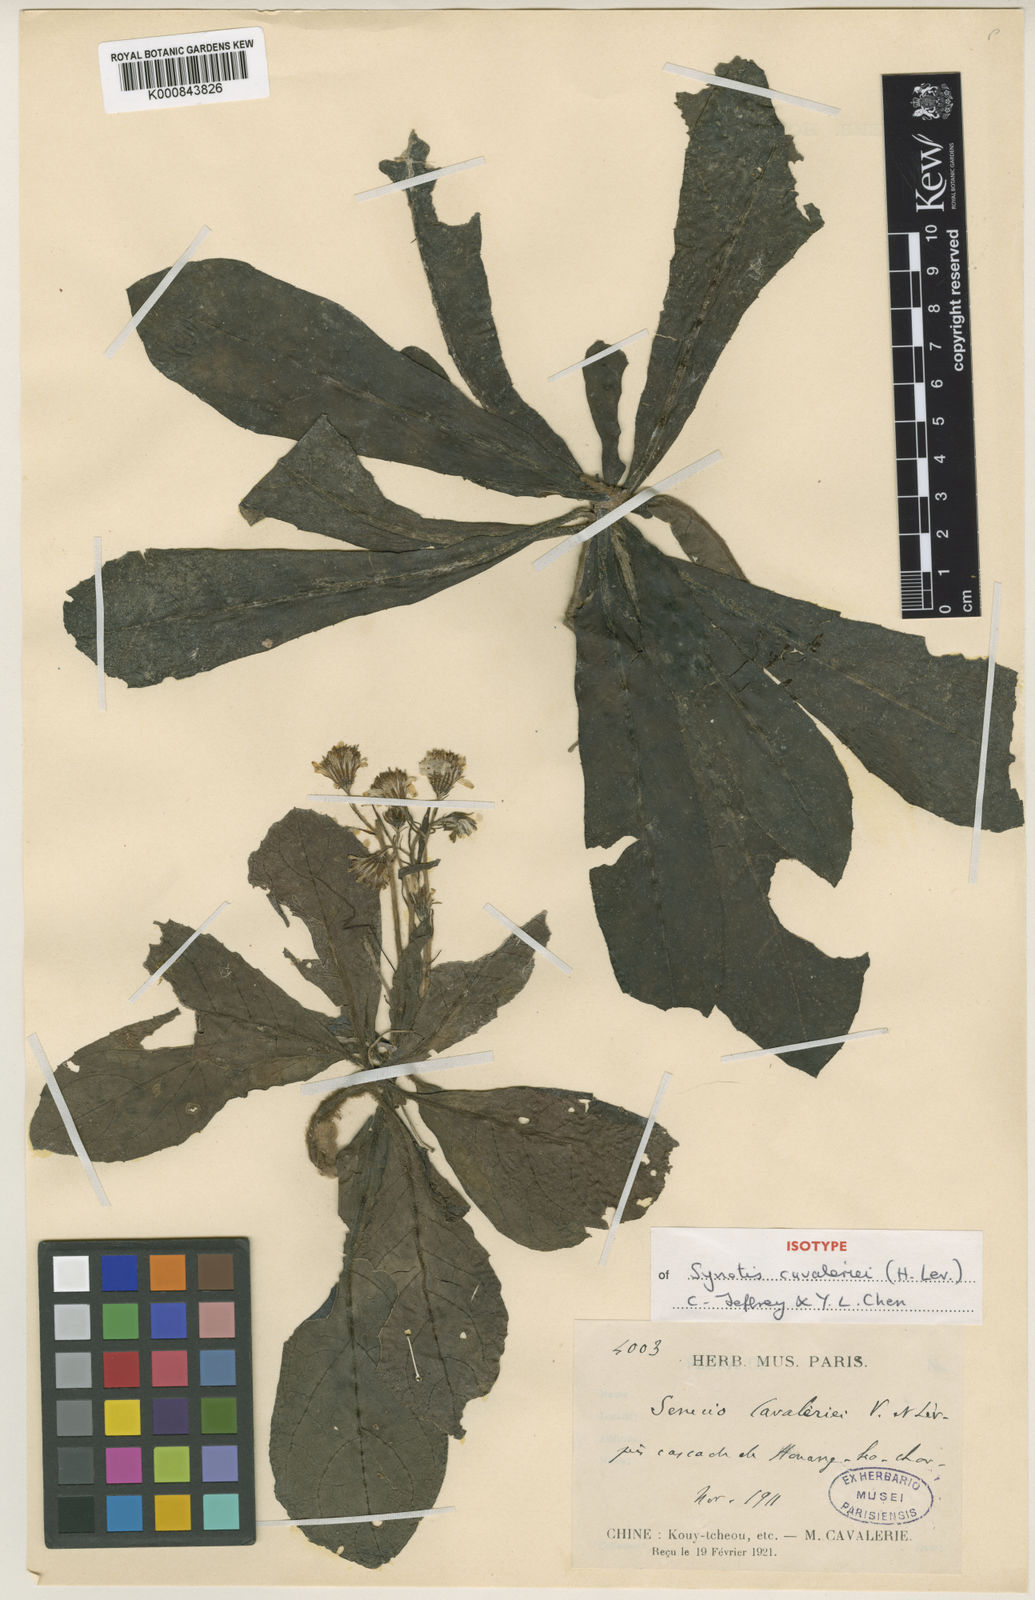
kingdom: Plantae
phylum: Tracheophyta
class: Magnoliopsida
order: Asterales
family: Asteraceae
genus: Synotis
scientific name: Synotis
